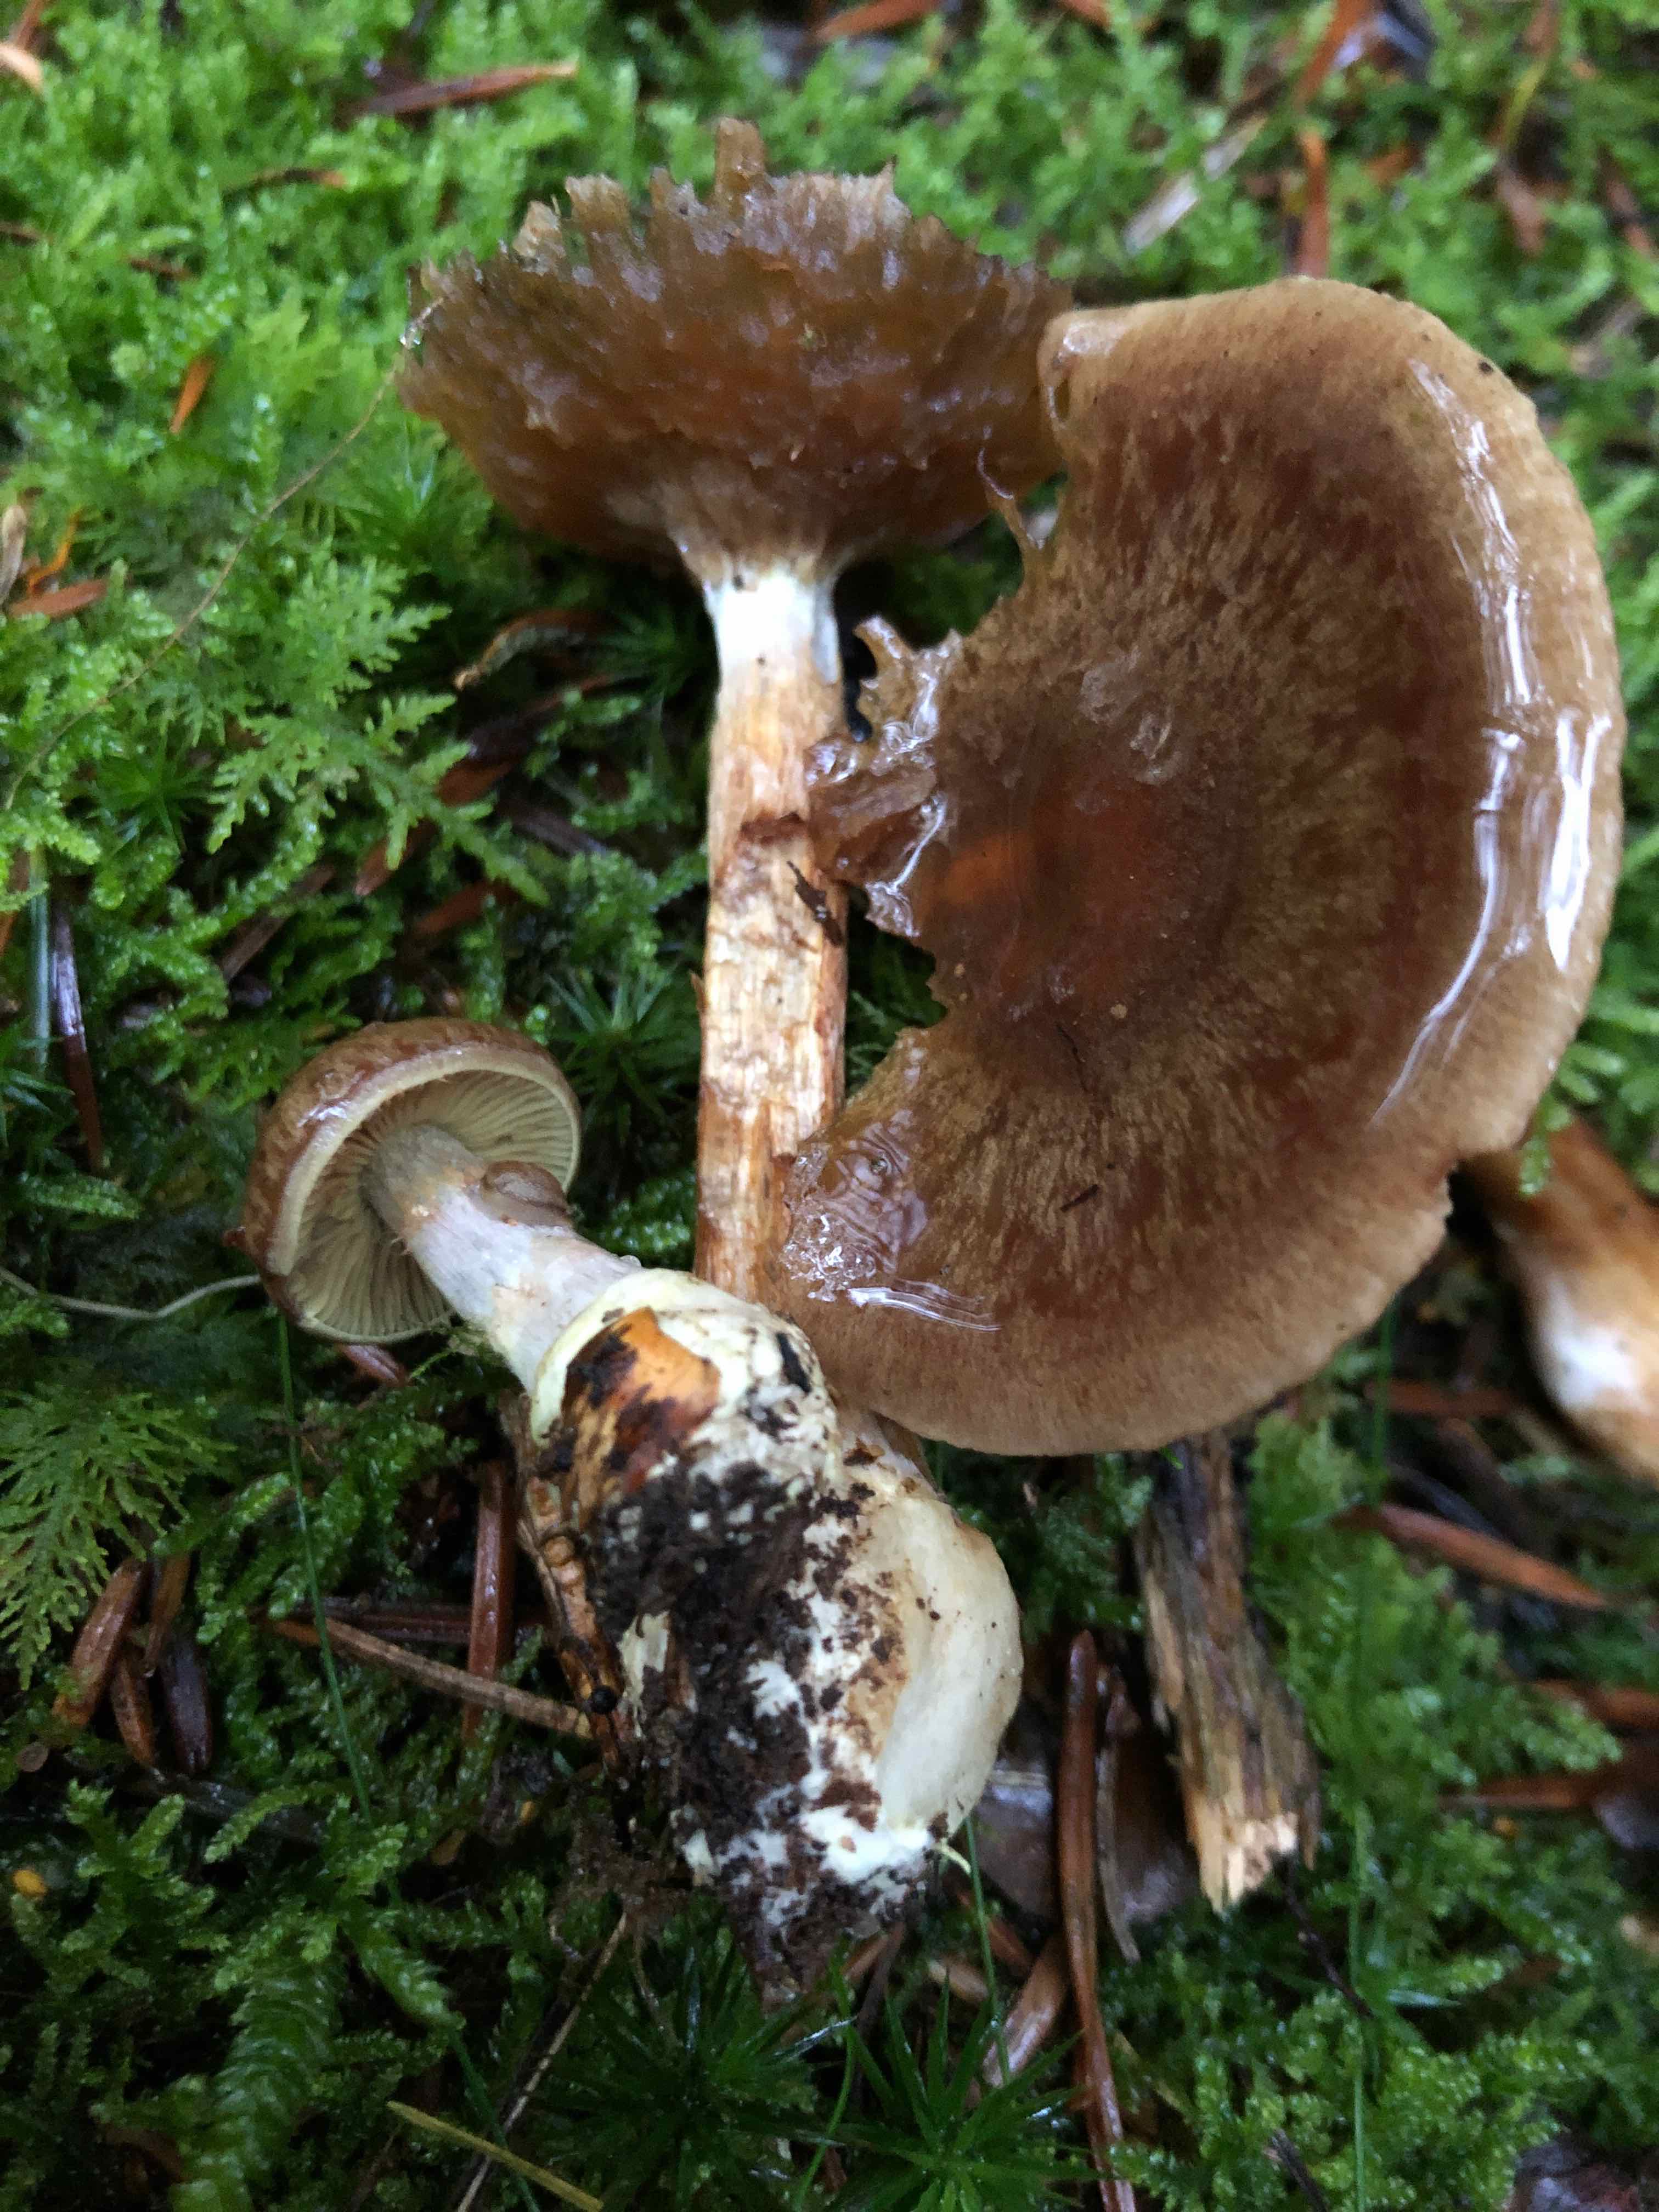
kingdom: Fungi
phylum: Basidiomycota
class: Agaricomycetes
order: Agaricales
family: Cortinariaceae
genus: Thaxterogaster
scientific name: Thaxterogaster scaurus
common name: sump-slørhat
